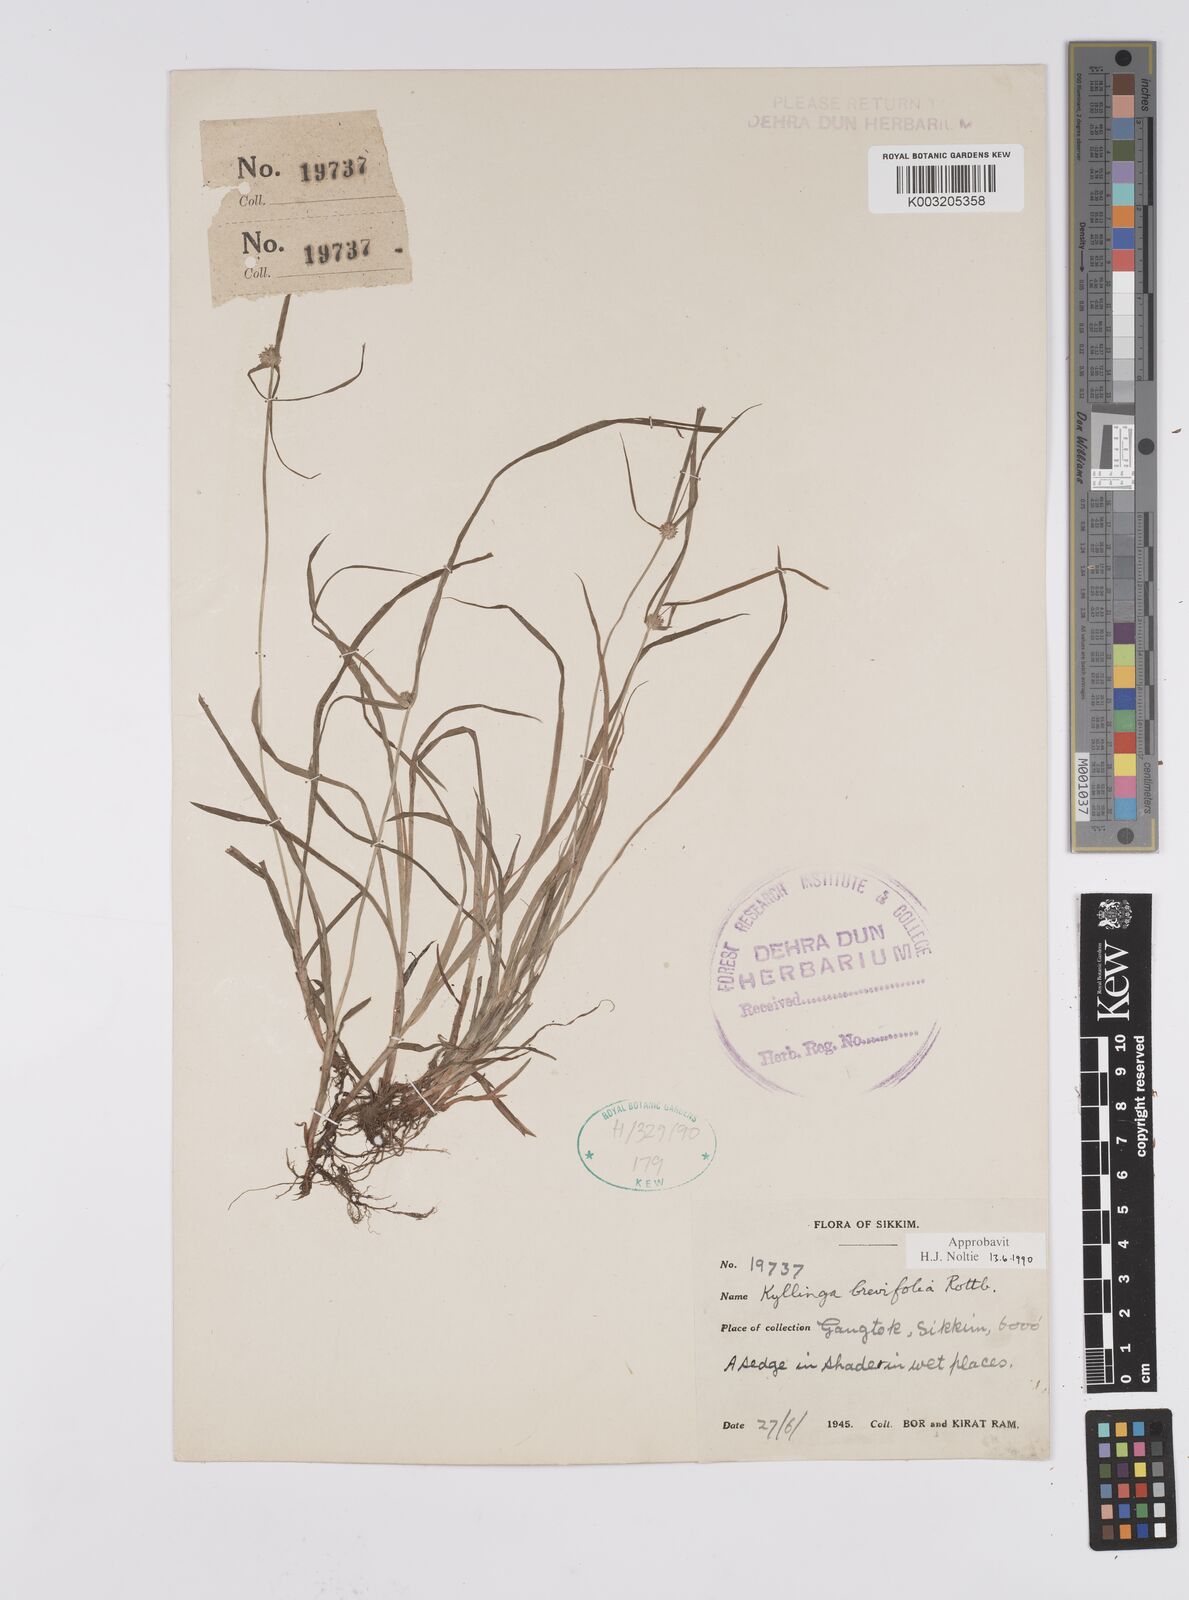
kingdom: Plantae
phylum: Tracheophyta
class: Liliopsida
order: Poales
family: Cyperaceae
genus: Cyperus
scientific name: Cyperus brevifolius
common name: Globe kyllinga
